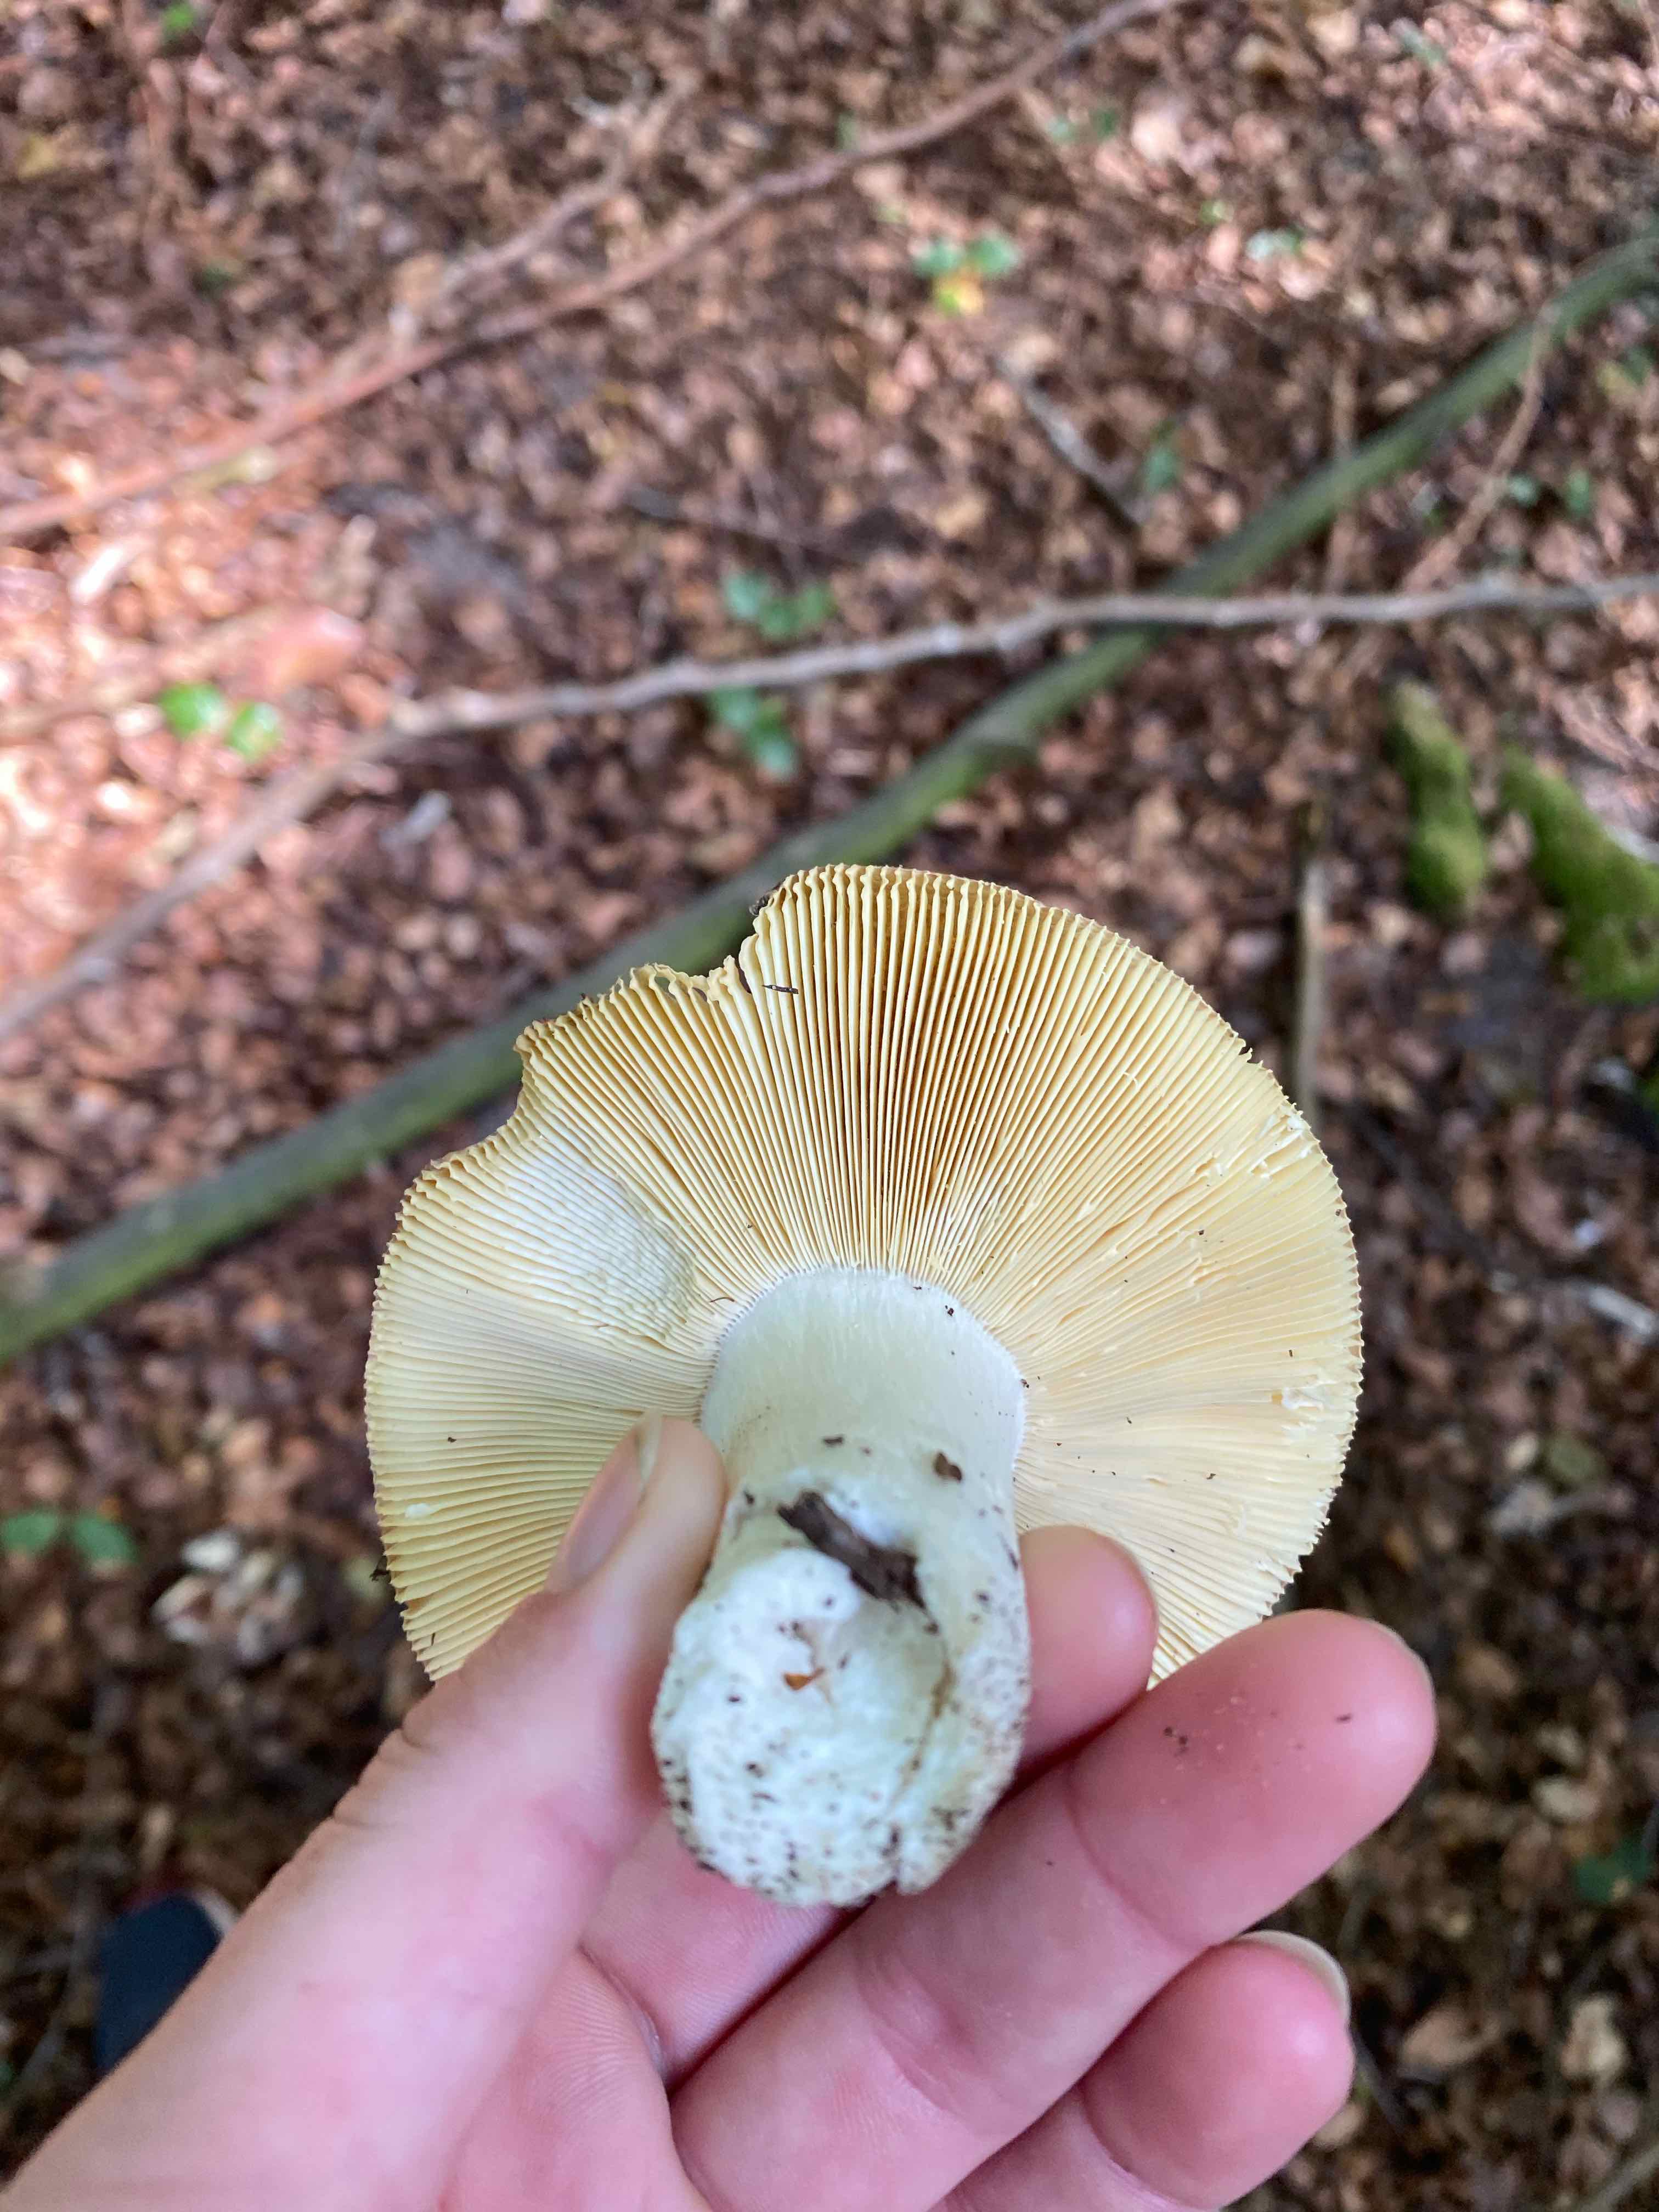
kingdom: Fungi
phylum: Basidiomycota
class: Agaricomycetes
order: Russulales
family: Russulaceae
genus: Russula
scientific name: Russula olivacea
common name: stor skørhat
